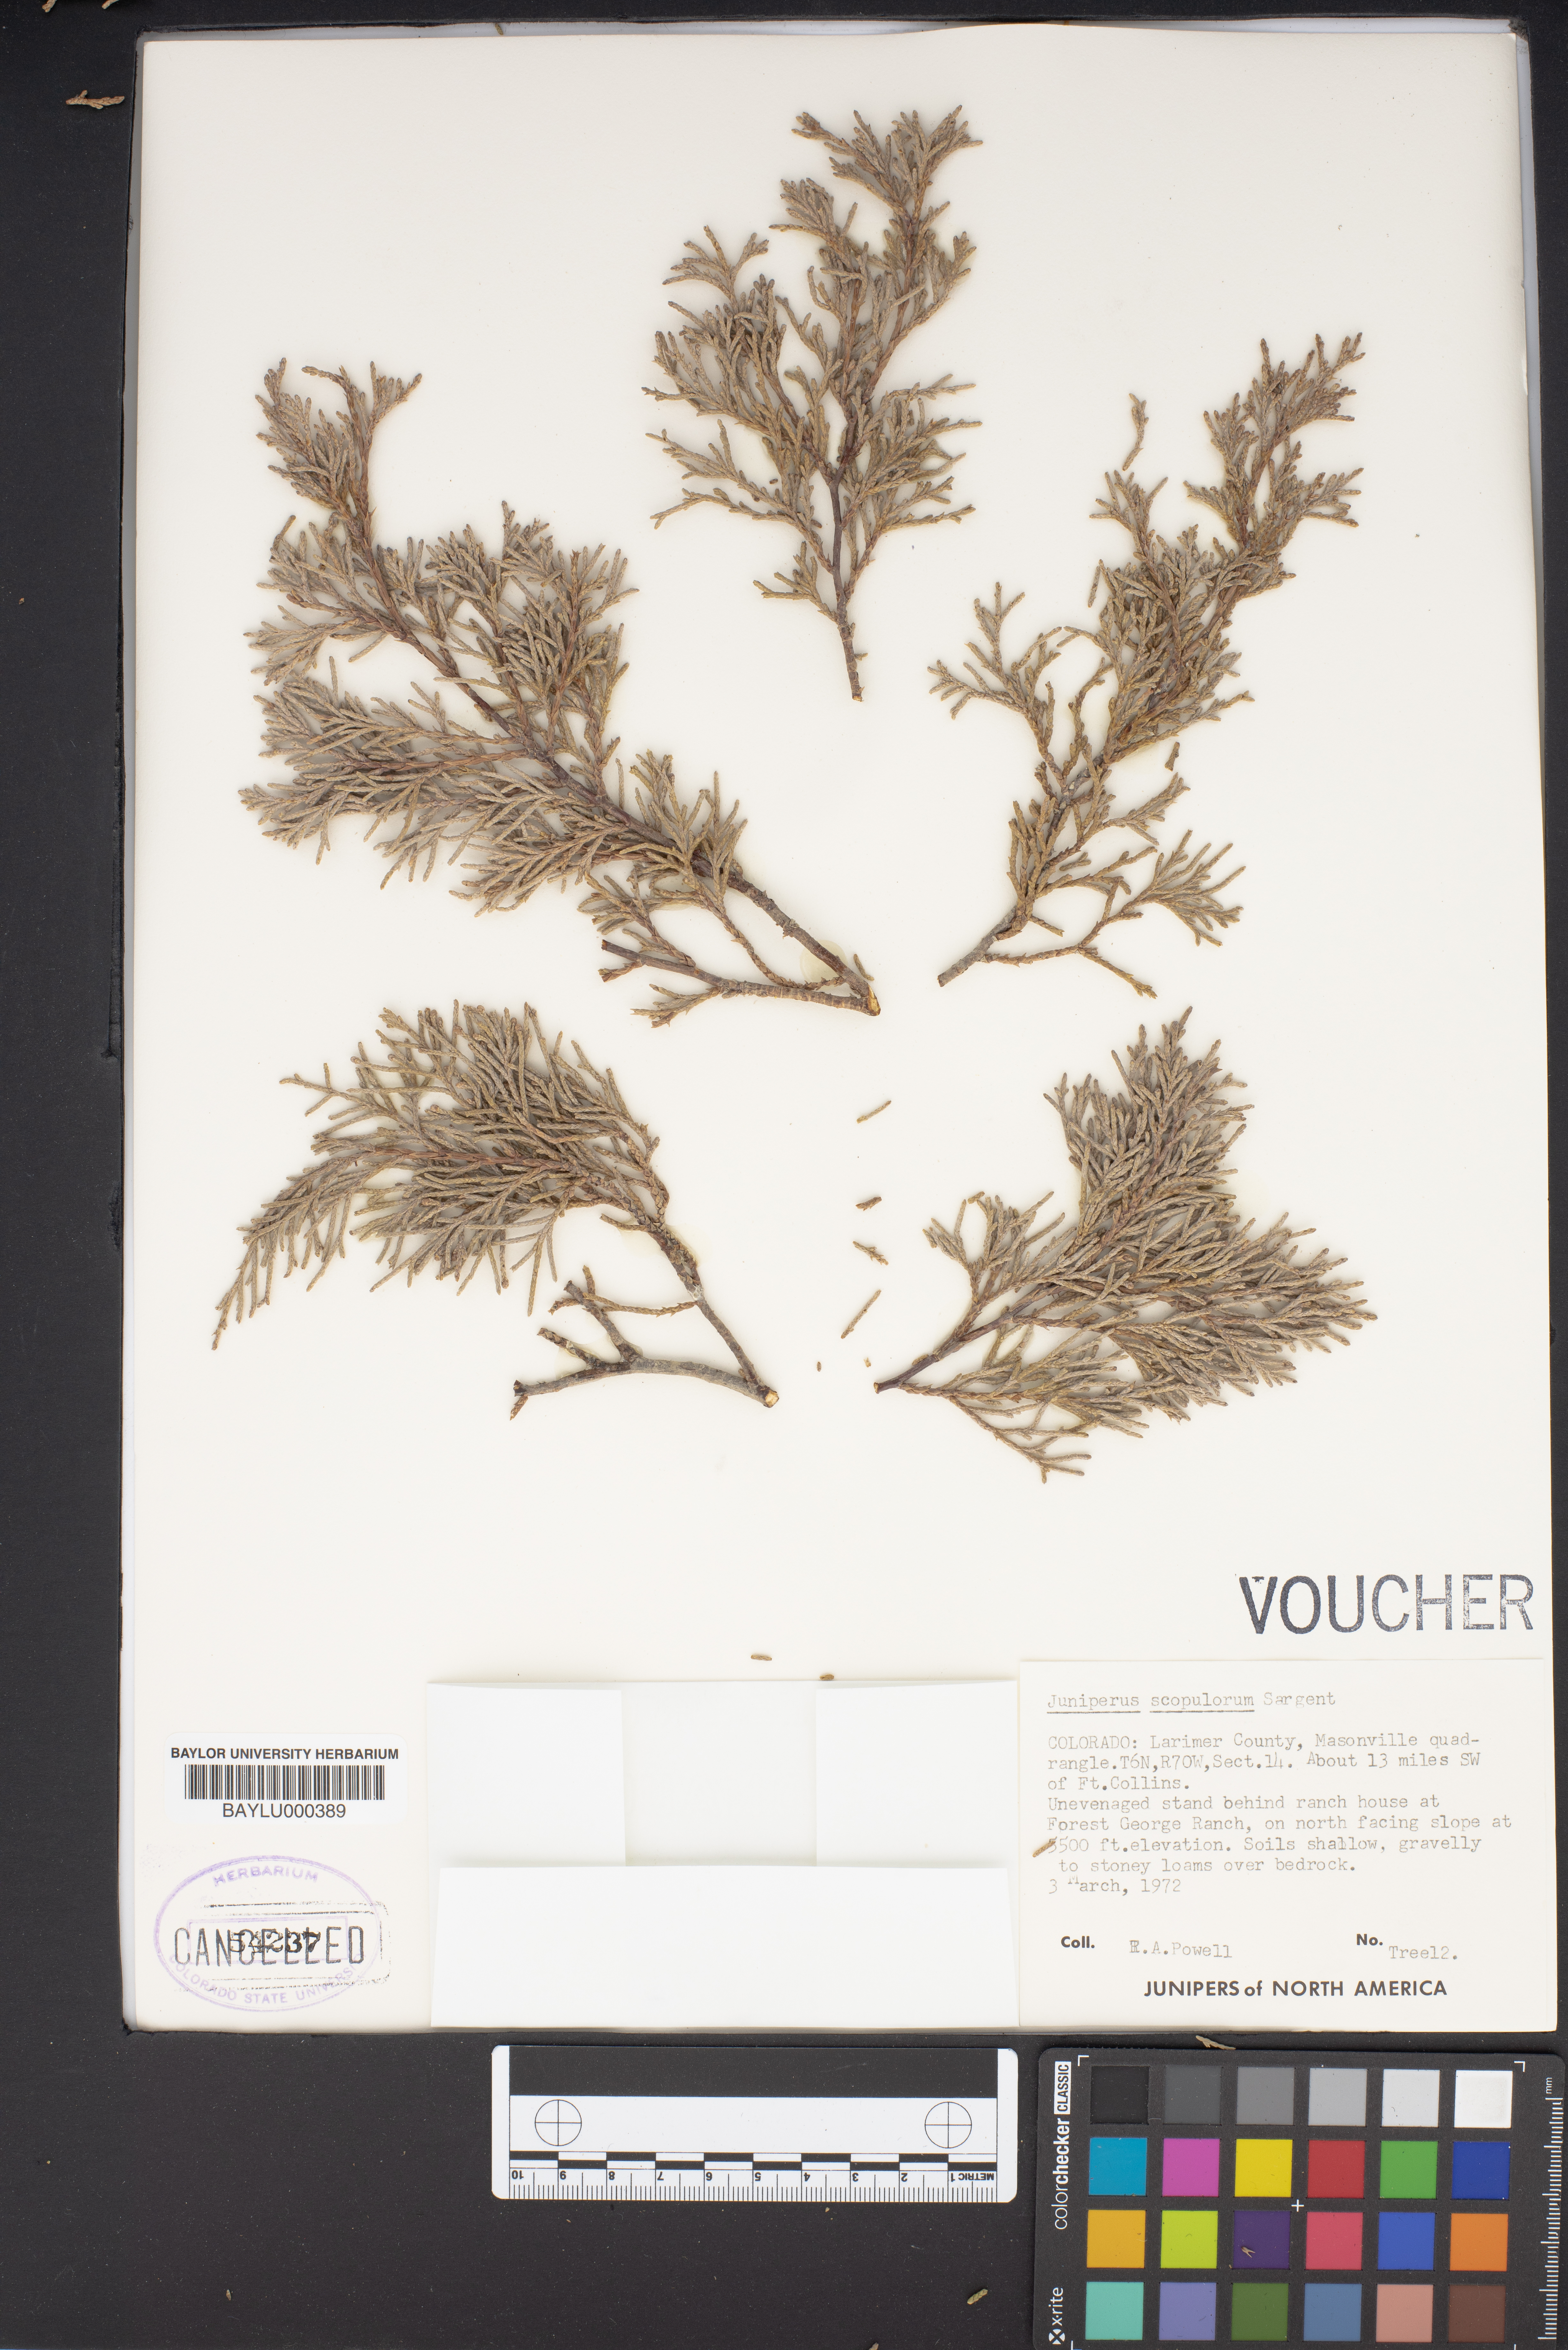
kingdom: Plantae
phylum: Tracheophyta
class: Pinopsida
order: Pinales
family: Cupressaceae
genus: Juniperus
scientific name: Juniperus scopulorum
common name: Rocky mountain juniper
